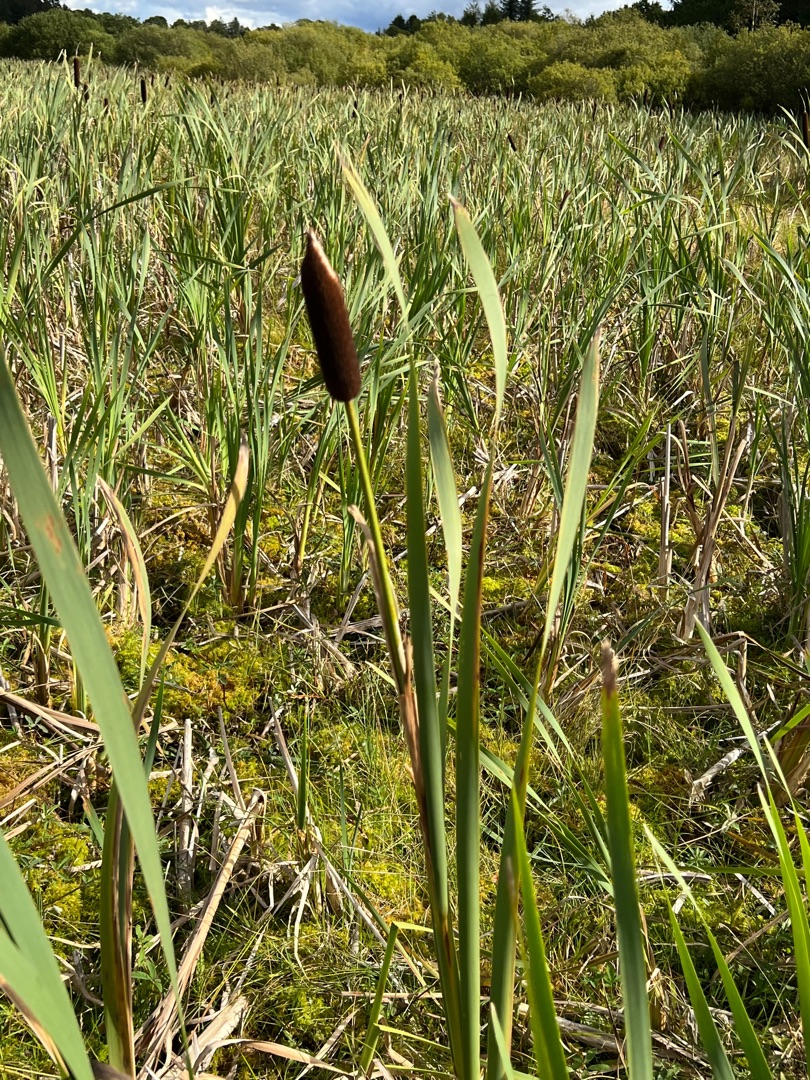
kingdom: Plantae
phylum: Tracheophyta
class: Liliopsida
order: Poales
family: Typhaceae
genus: Typha
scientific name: Typha latifolia
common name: Bredbladet dunhammer
